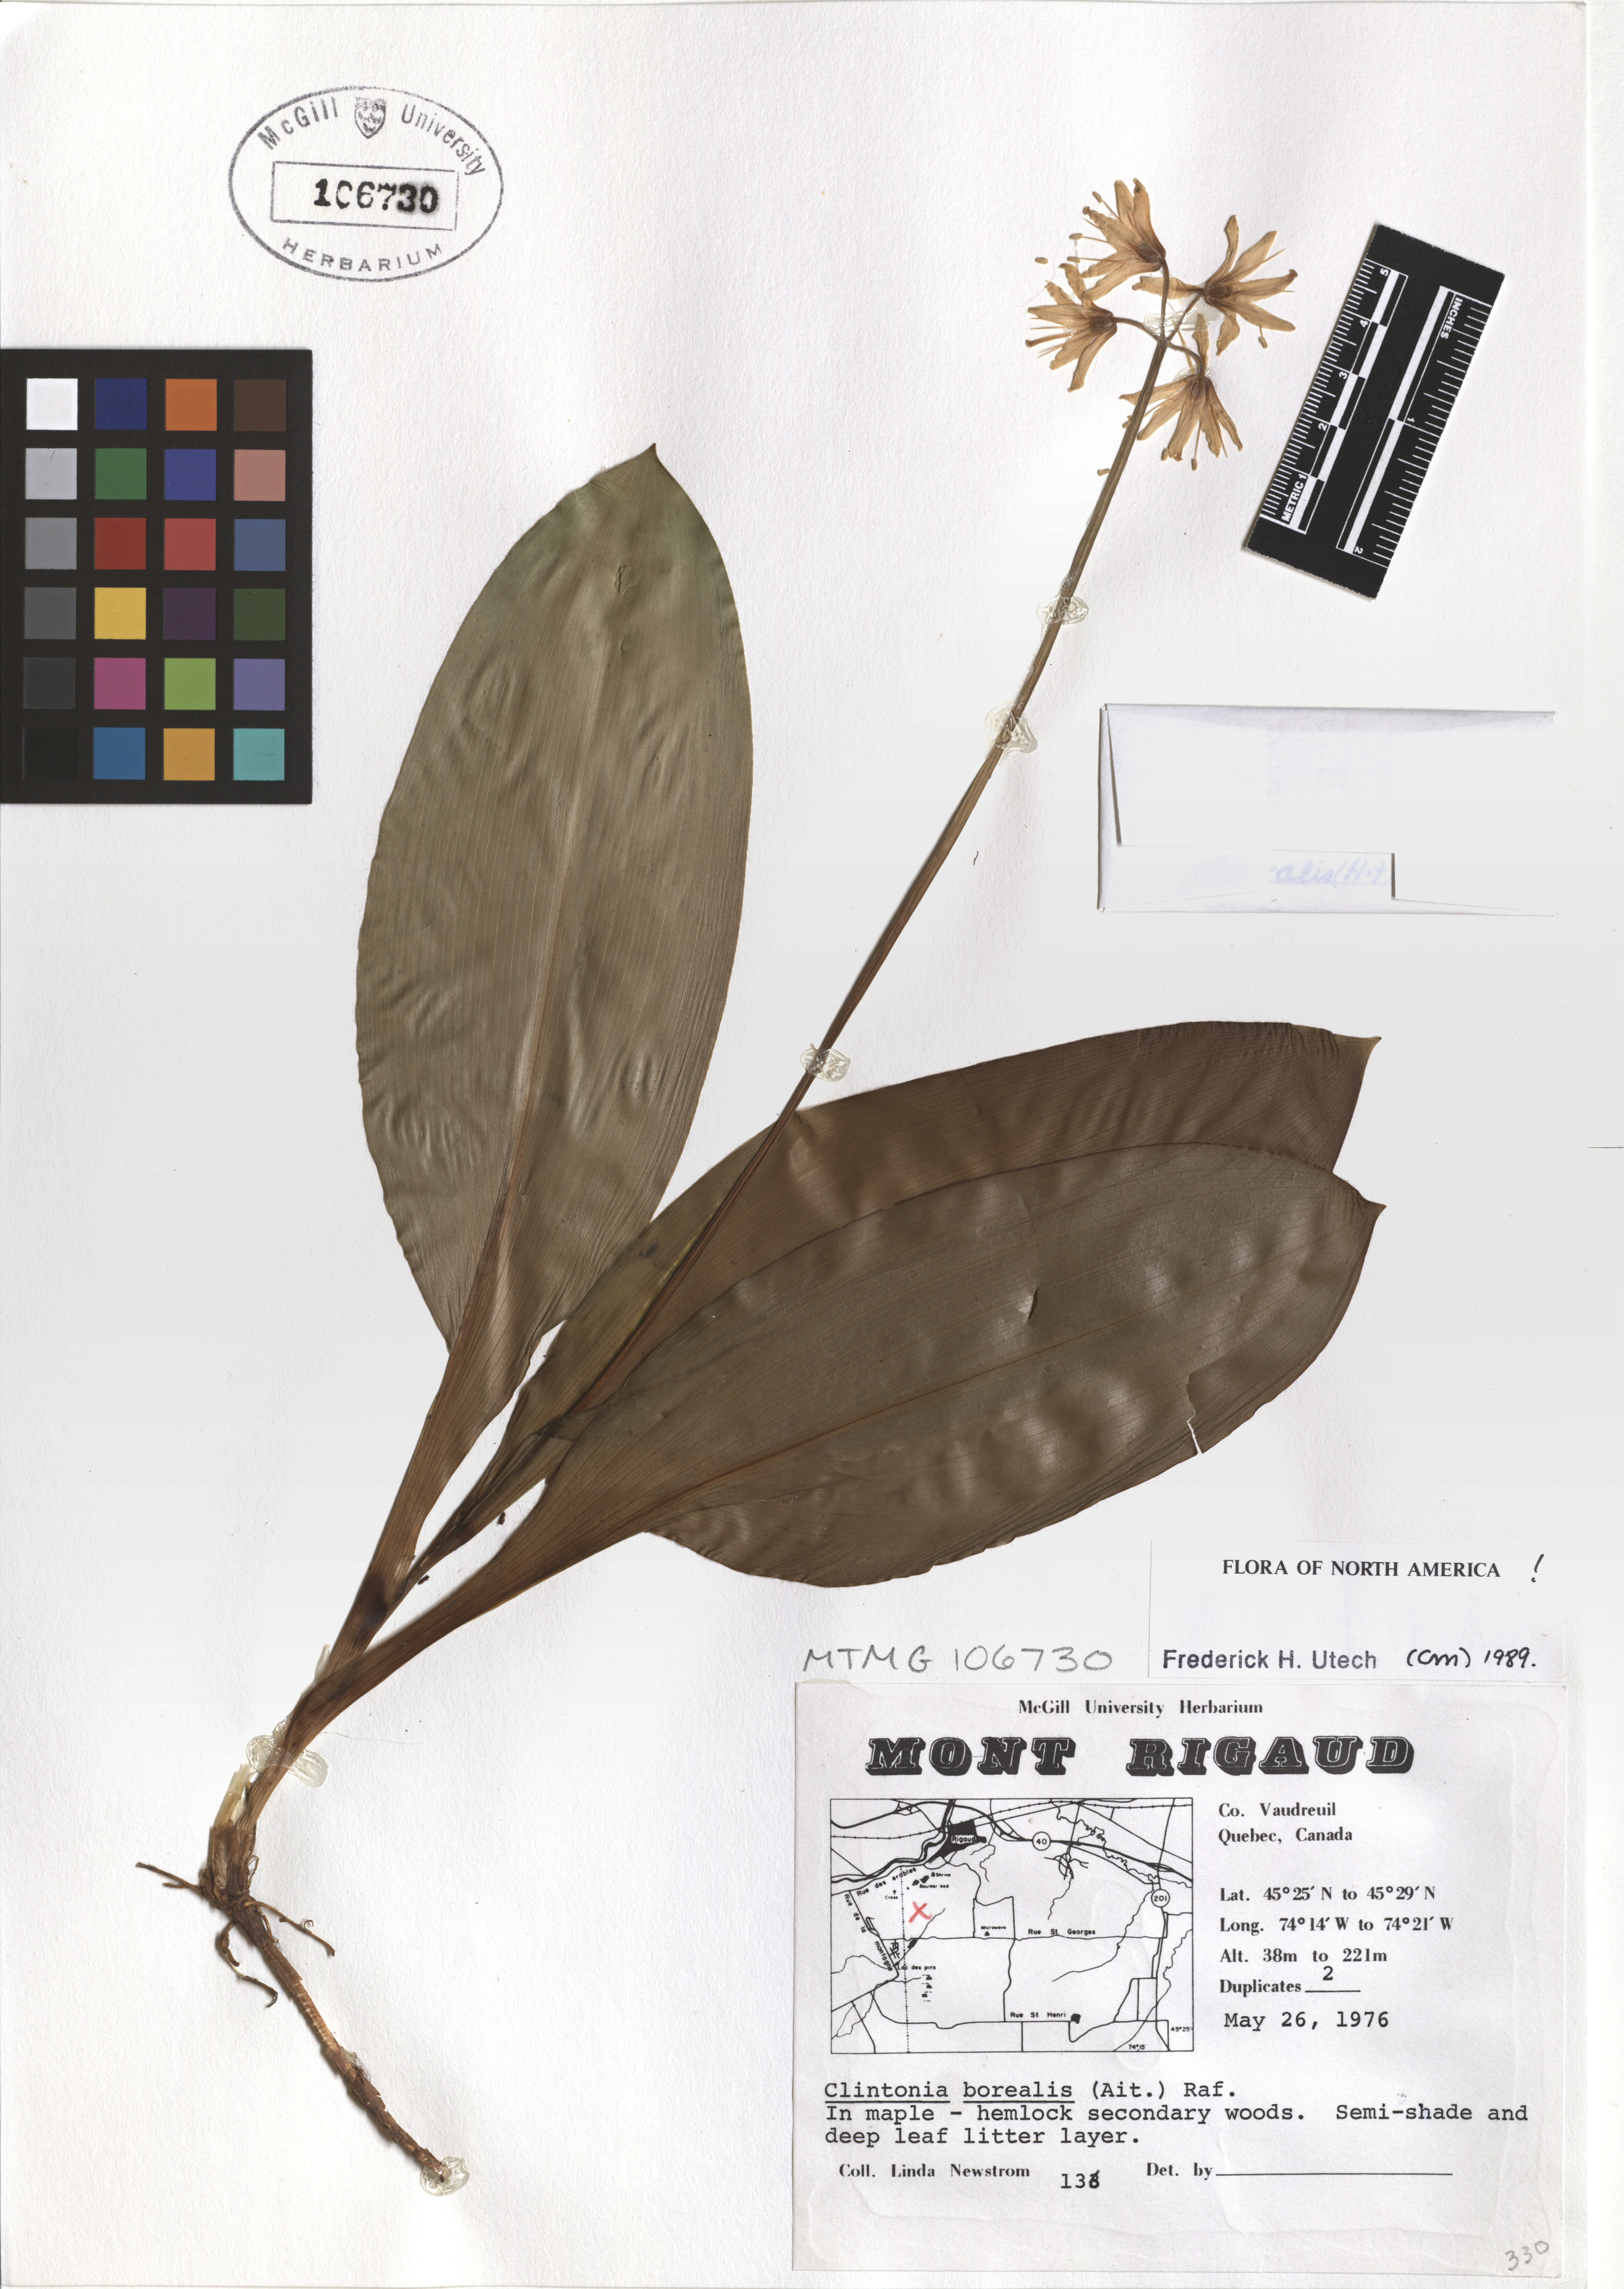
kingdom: Plantae
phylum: Tracheophyta
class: Liliopsida
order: Liliales
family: Liliaceae
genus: Clintonia
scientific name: Clintonia borealis
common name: Yellow clintonia
